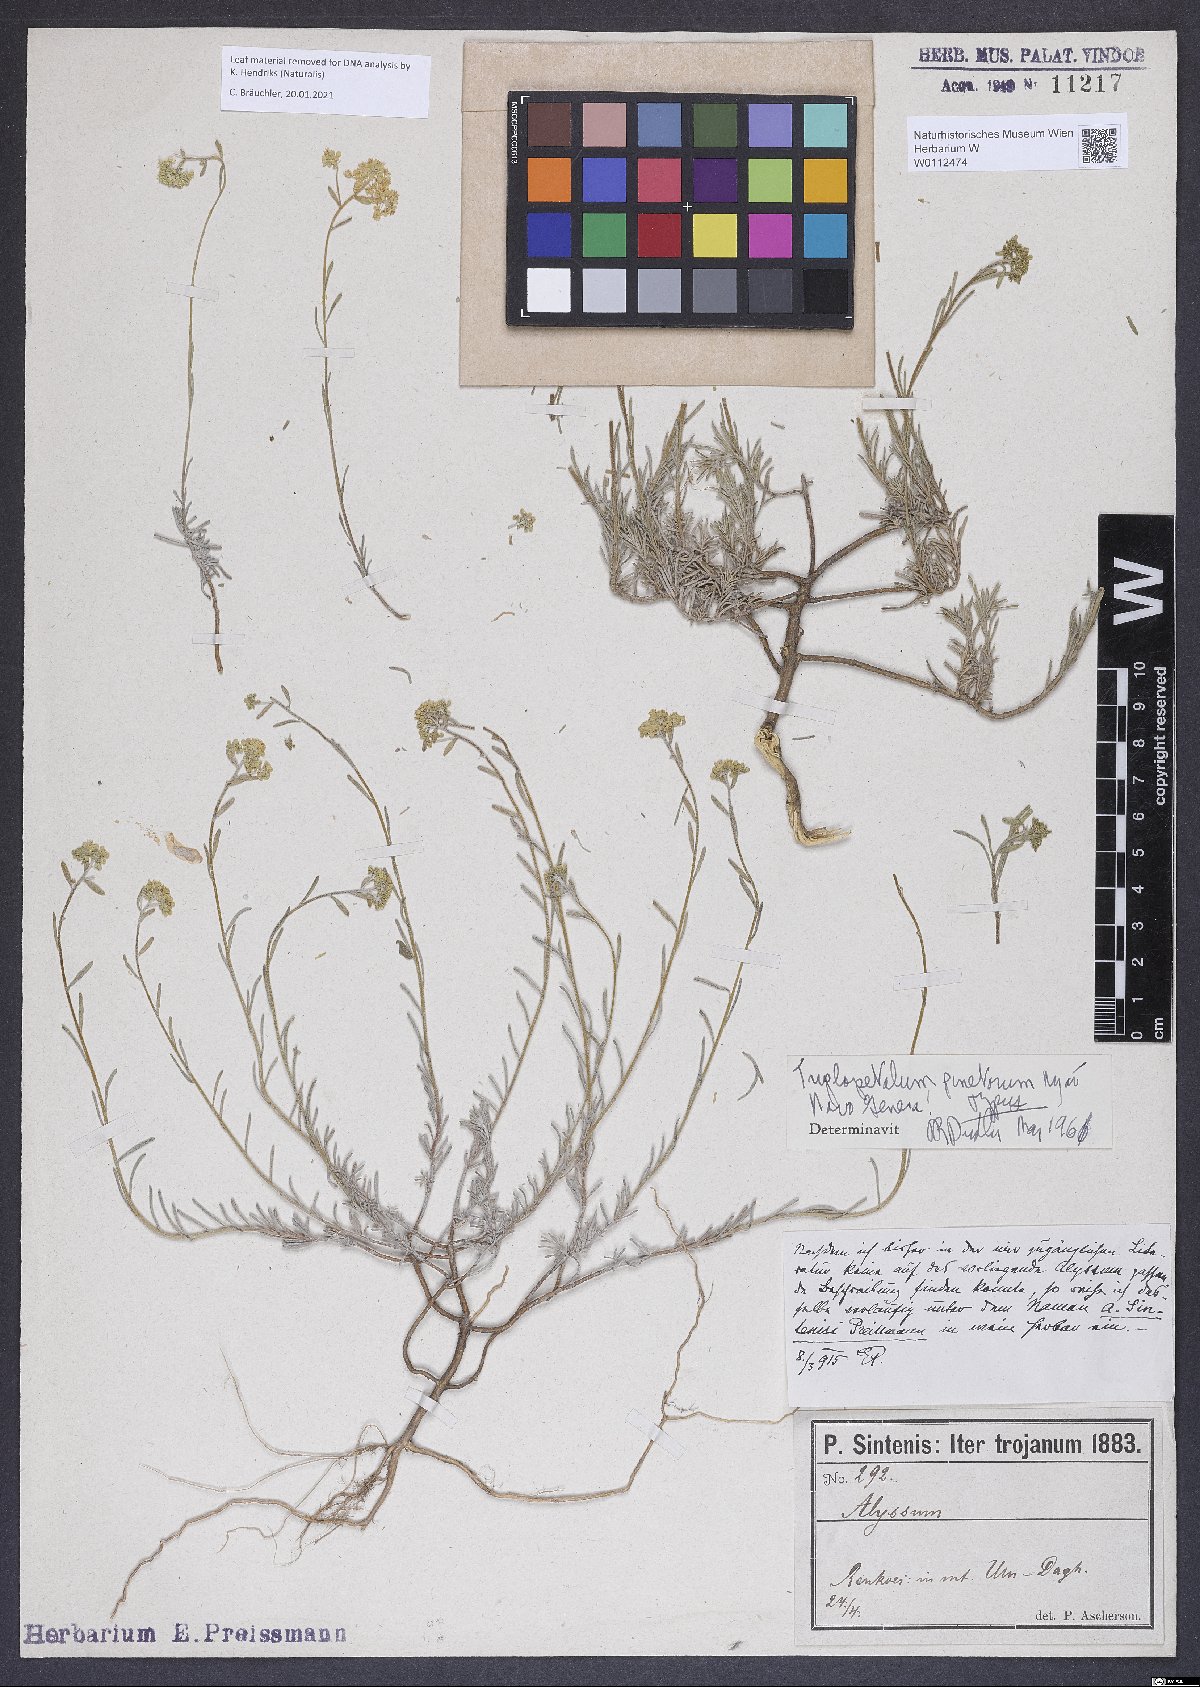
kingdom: Plantae
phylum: Tracheophyta
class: Magnoliopsida
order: Brassicales
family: Brassicaceae
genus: Odontarrhena
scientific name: Odontarrhena pinifolia
